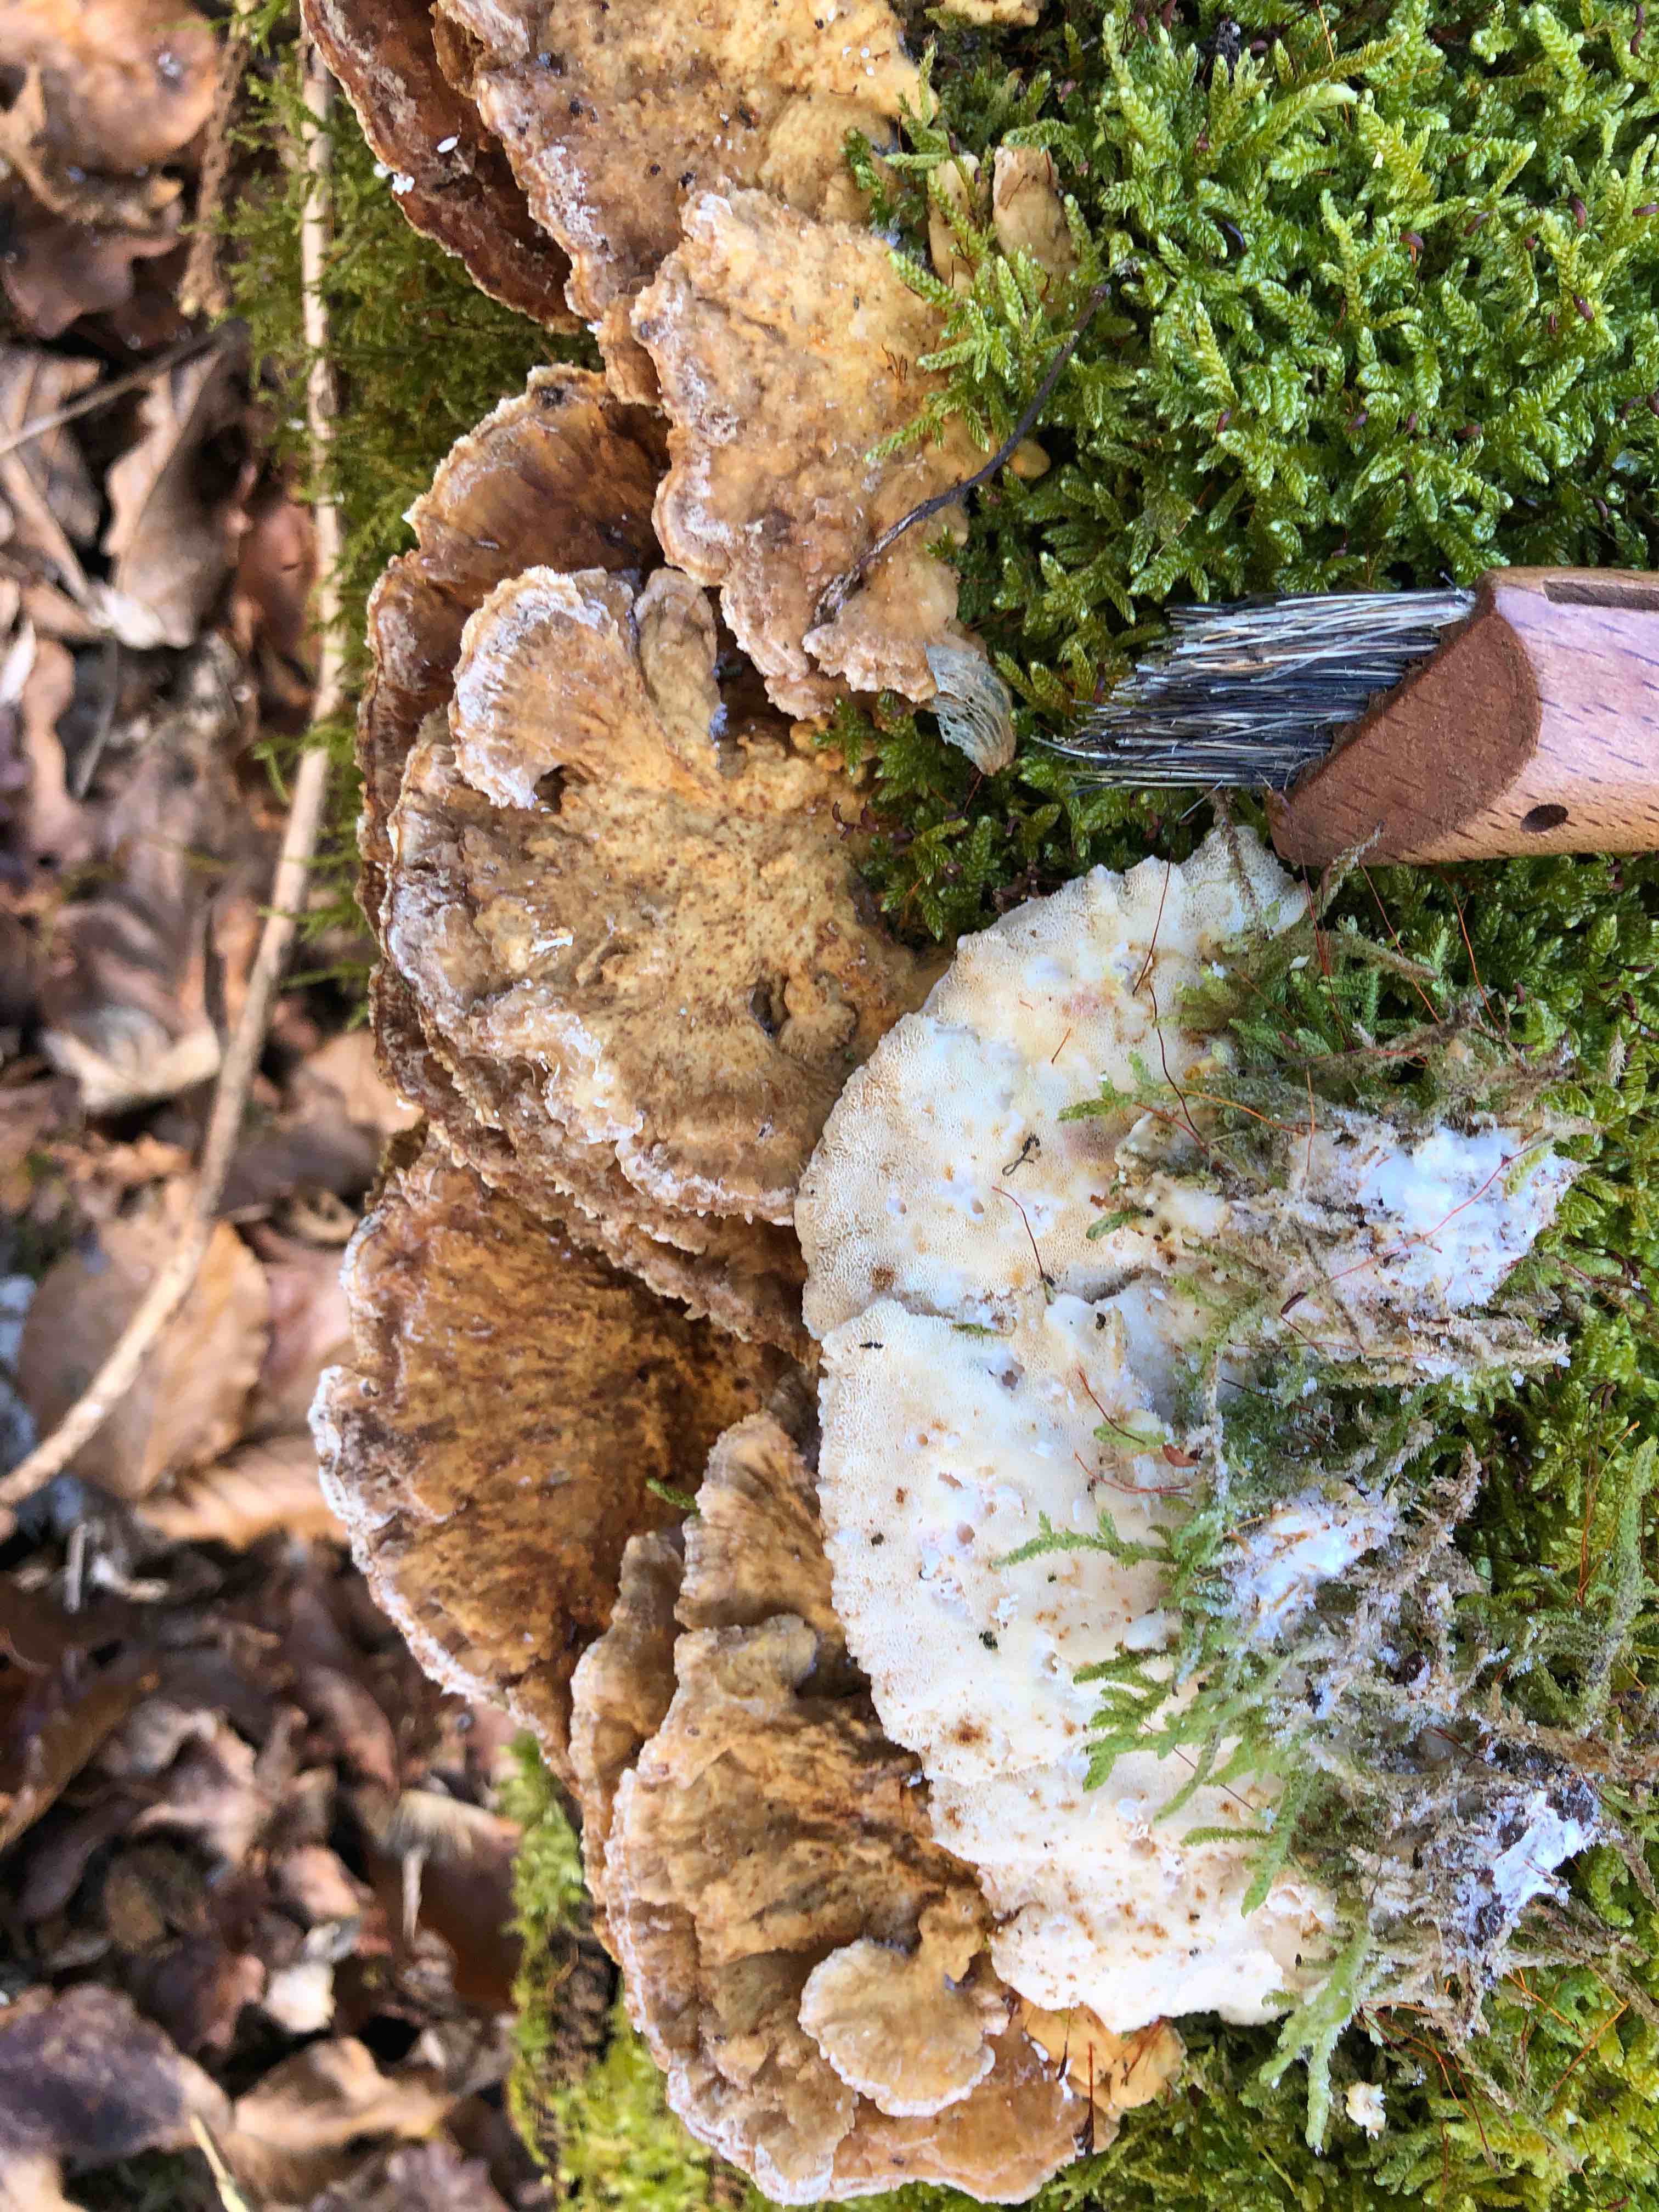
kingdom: Fungi
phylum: Basidiomycota
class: Agaricomycetes
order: Polyporales
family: Polyporaceae
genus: Trametes
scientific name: Trametes ochracea
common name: bæltet læderporesvamp
